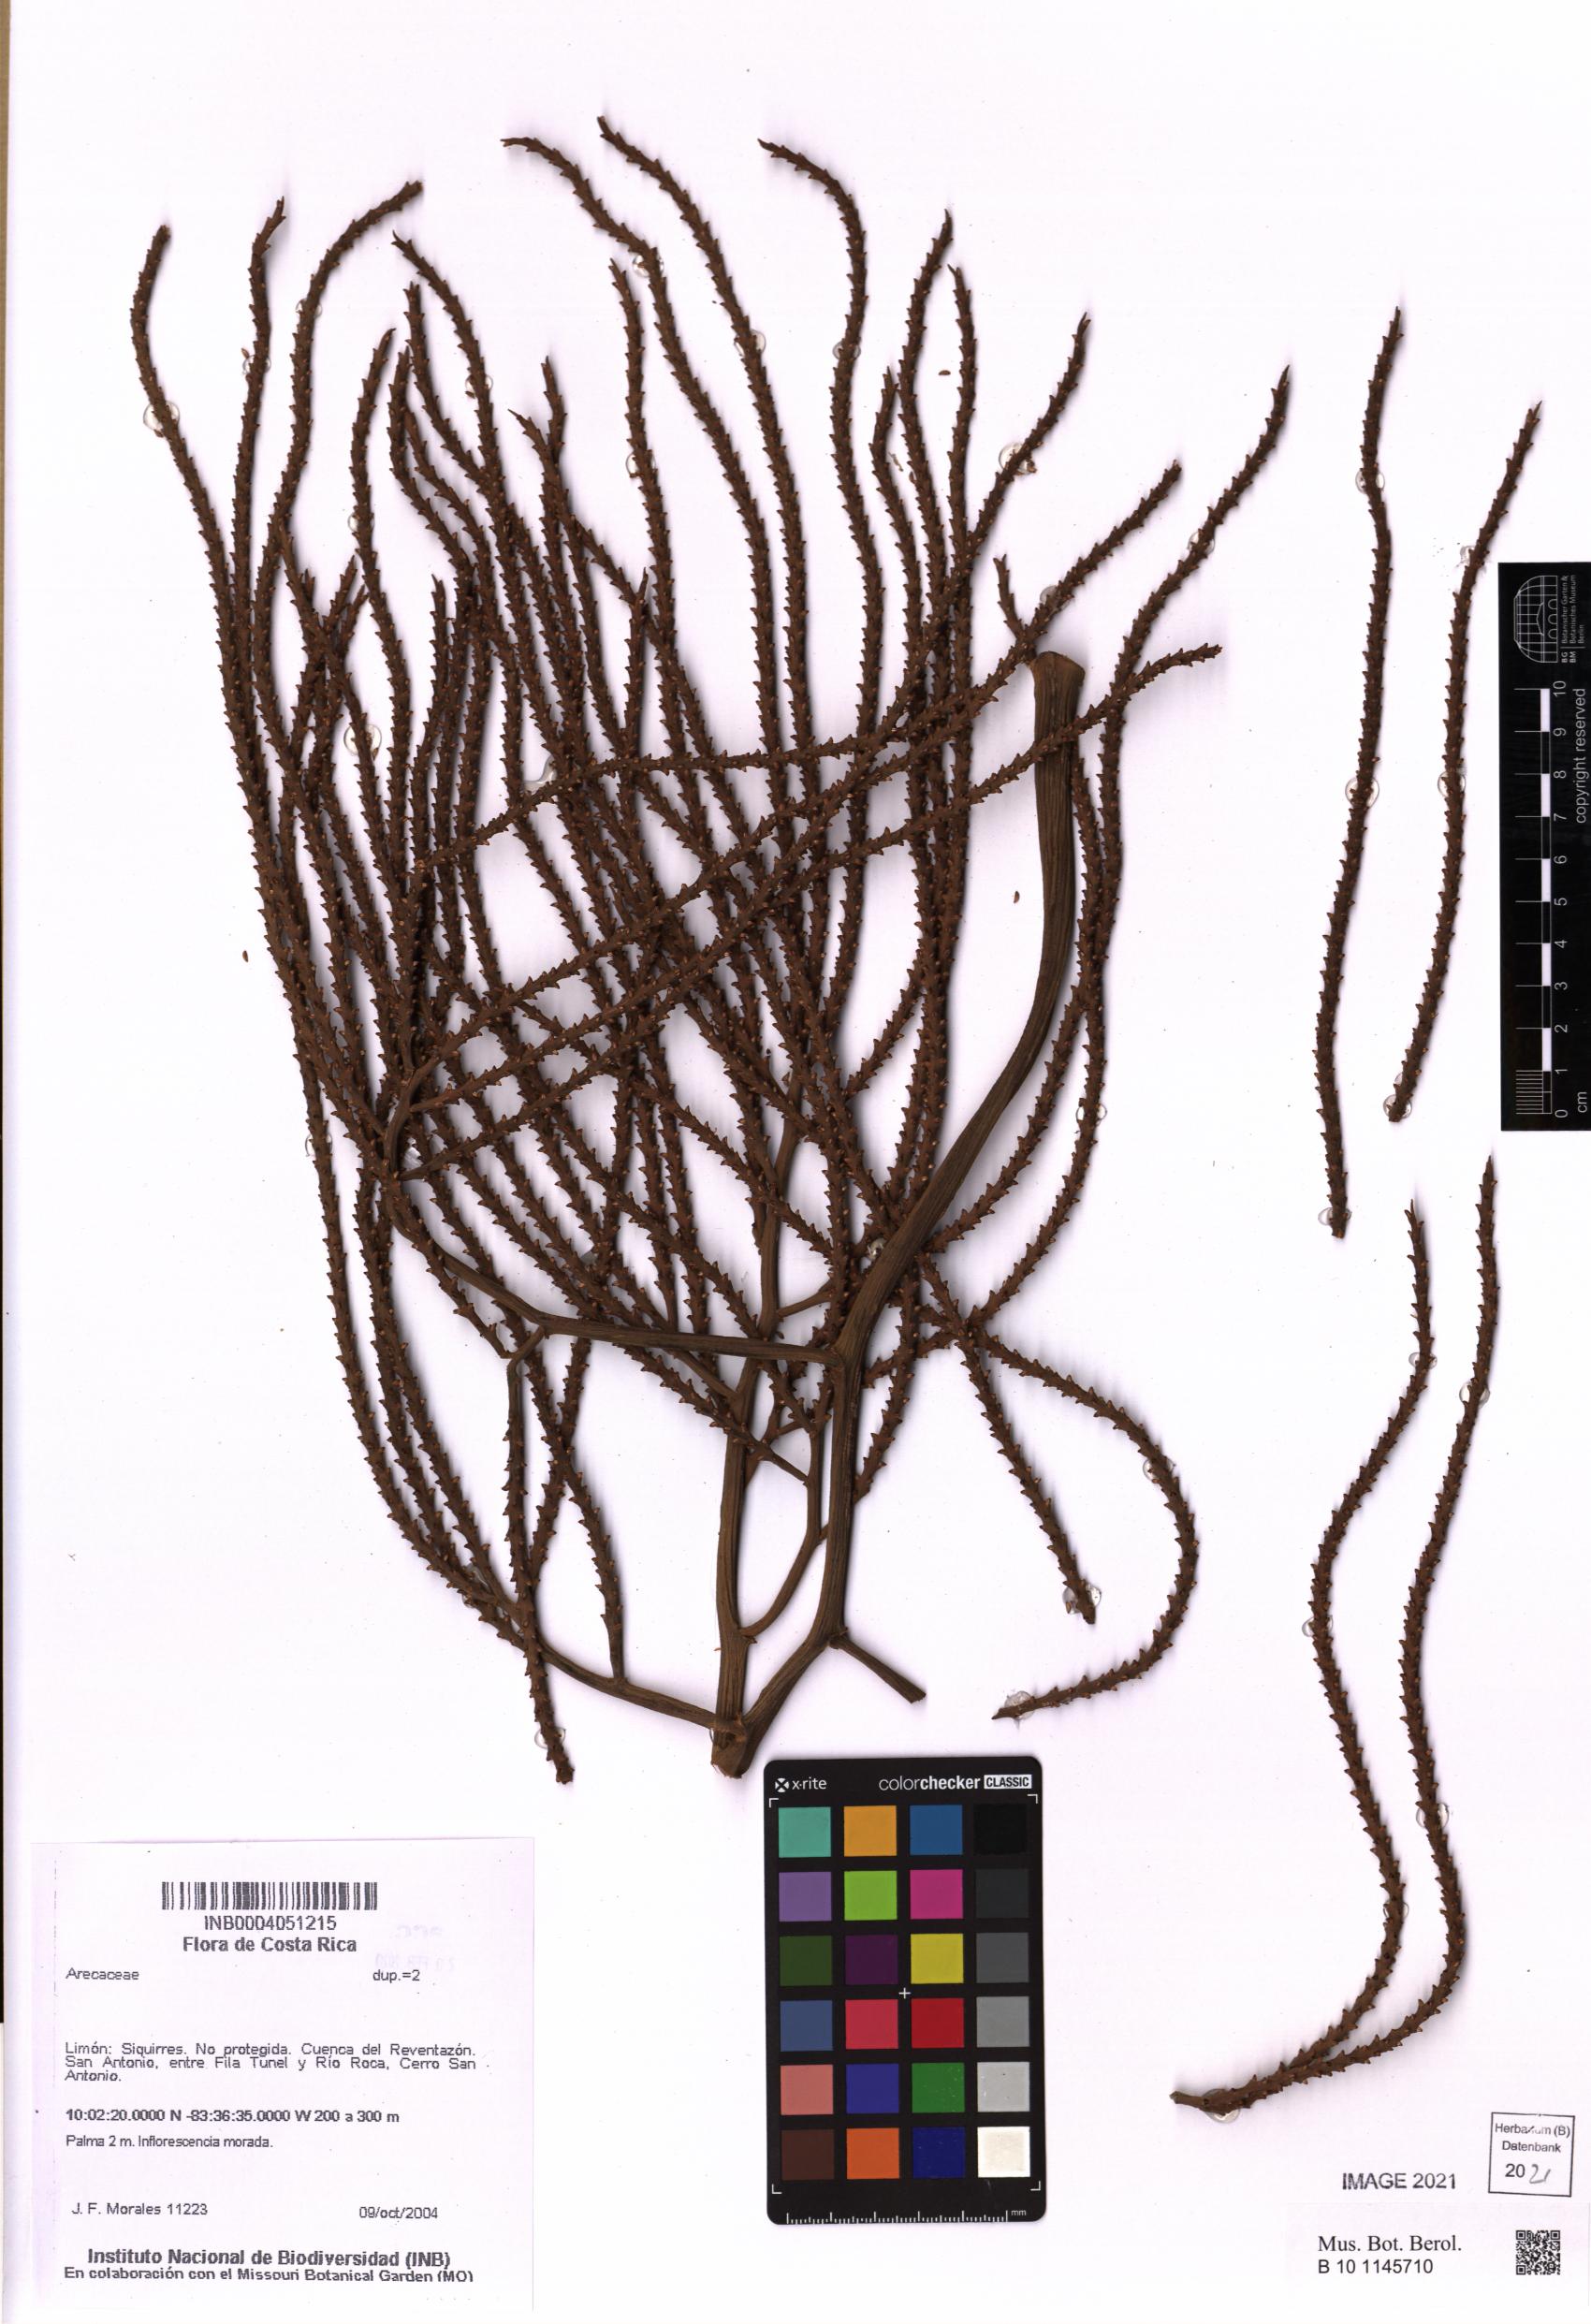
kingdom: Plantae
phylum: Tracheophyta
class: Liliopsida
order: Arecales
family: Arecaceae
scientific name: Arecaceae
